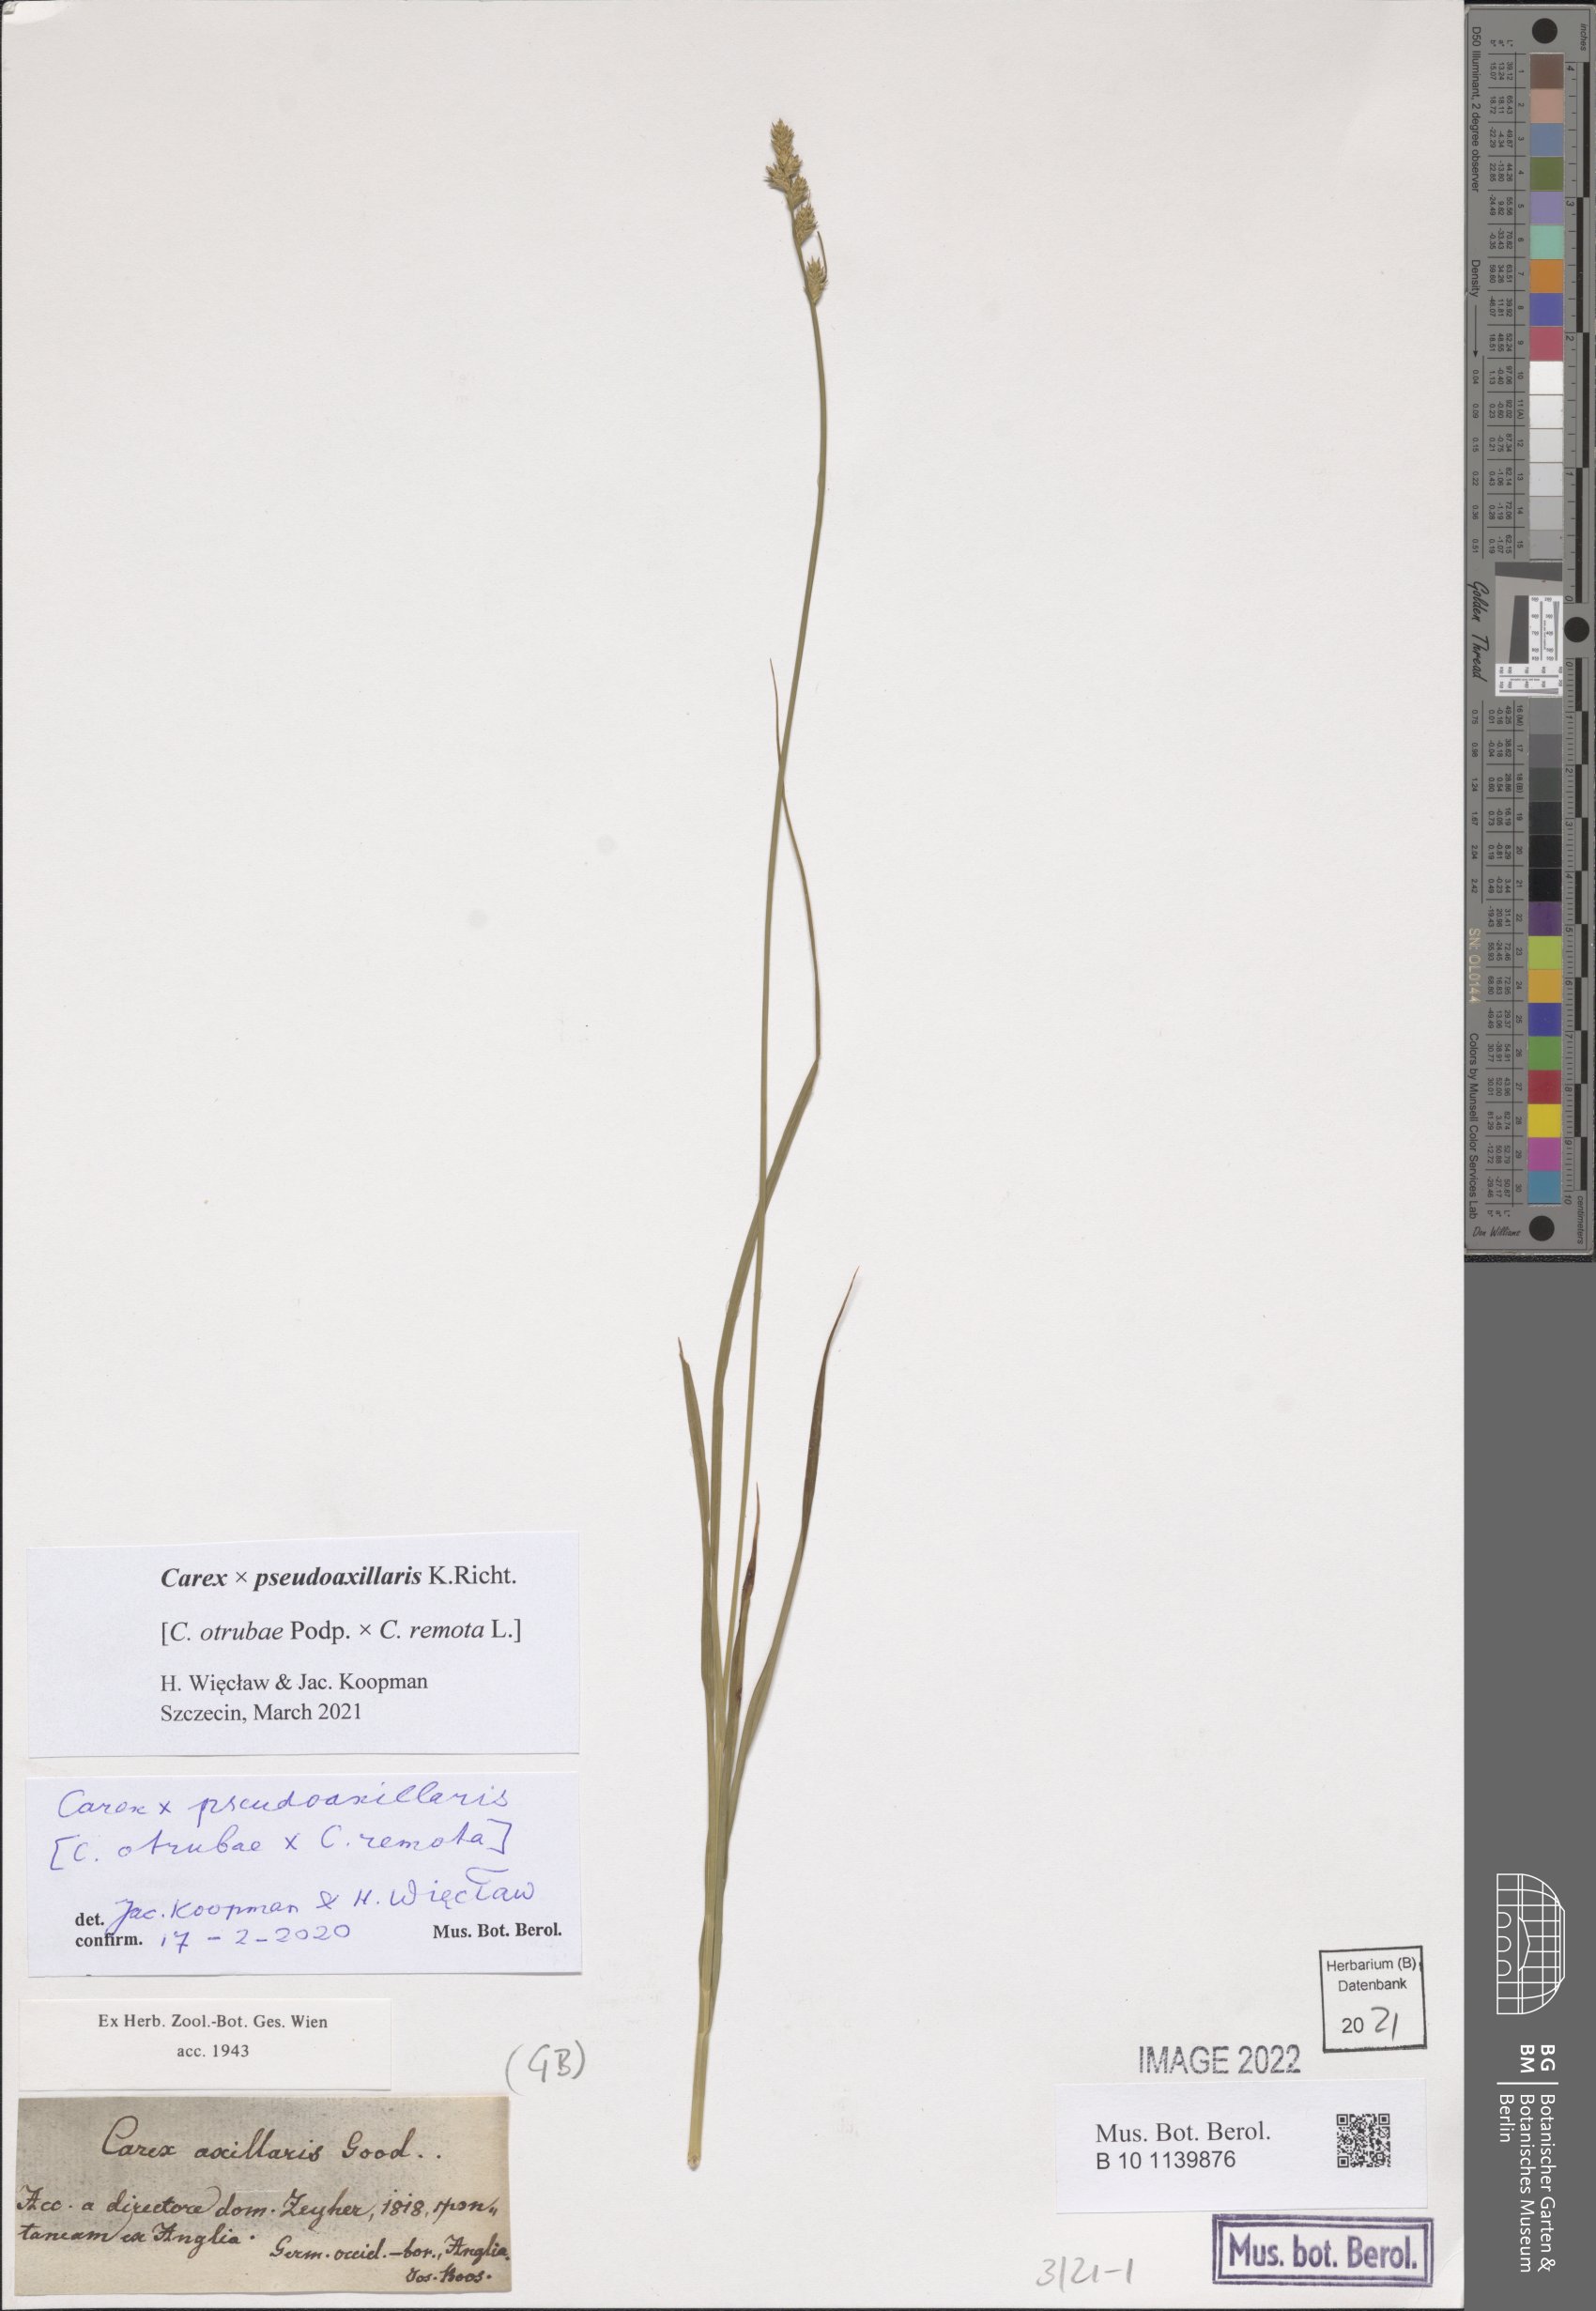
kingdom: Plantae
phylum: Tracheophyta
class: Liliopsida
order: Poales
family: Cyperaceae
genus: Carex
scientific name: Carex pseudoaxillaris
